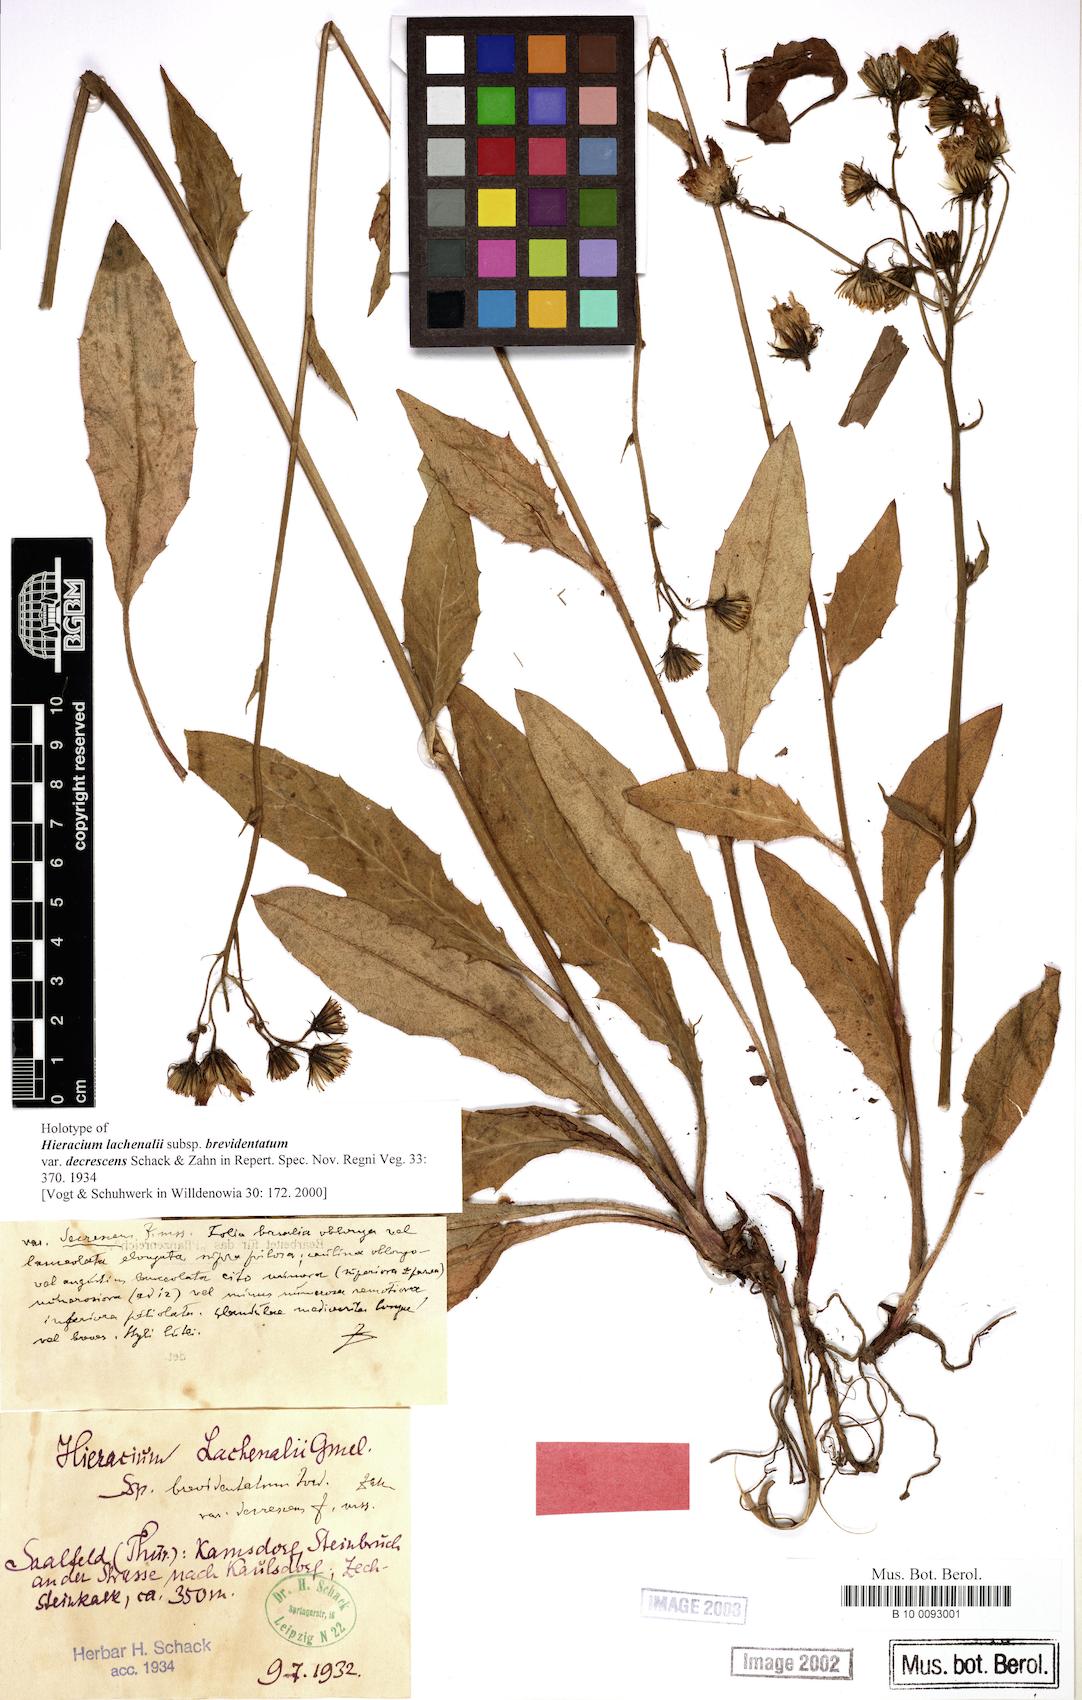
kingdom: Plantae
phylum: Tracheophyta
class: Magnoliopsida
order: Asterales
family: Asteraceae
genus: Hieracium
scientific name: Hieracium lachenalii
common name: Common hawkweed
